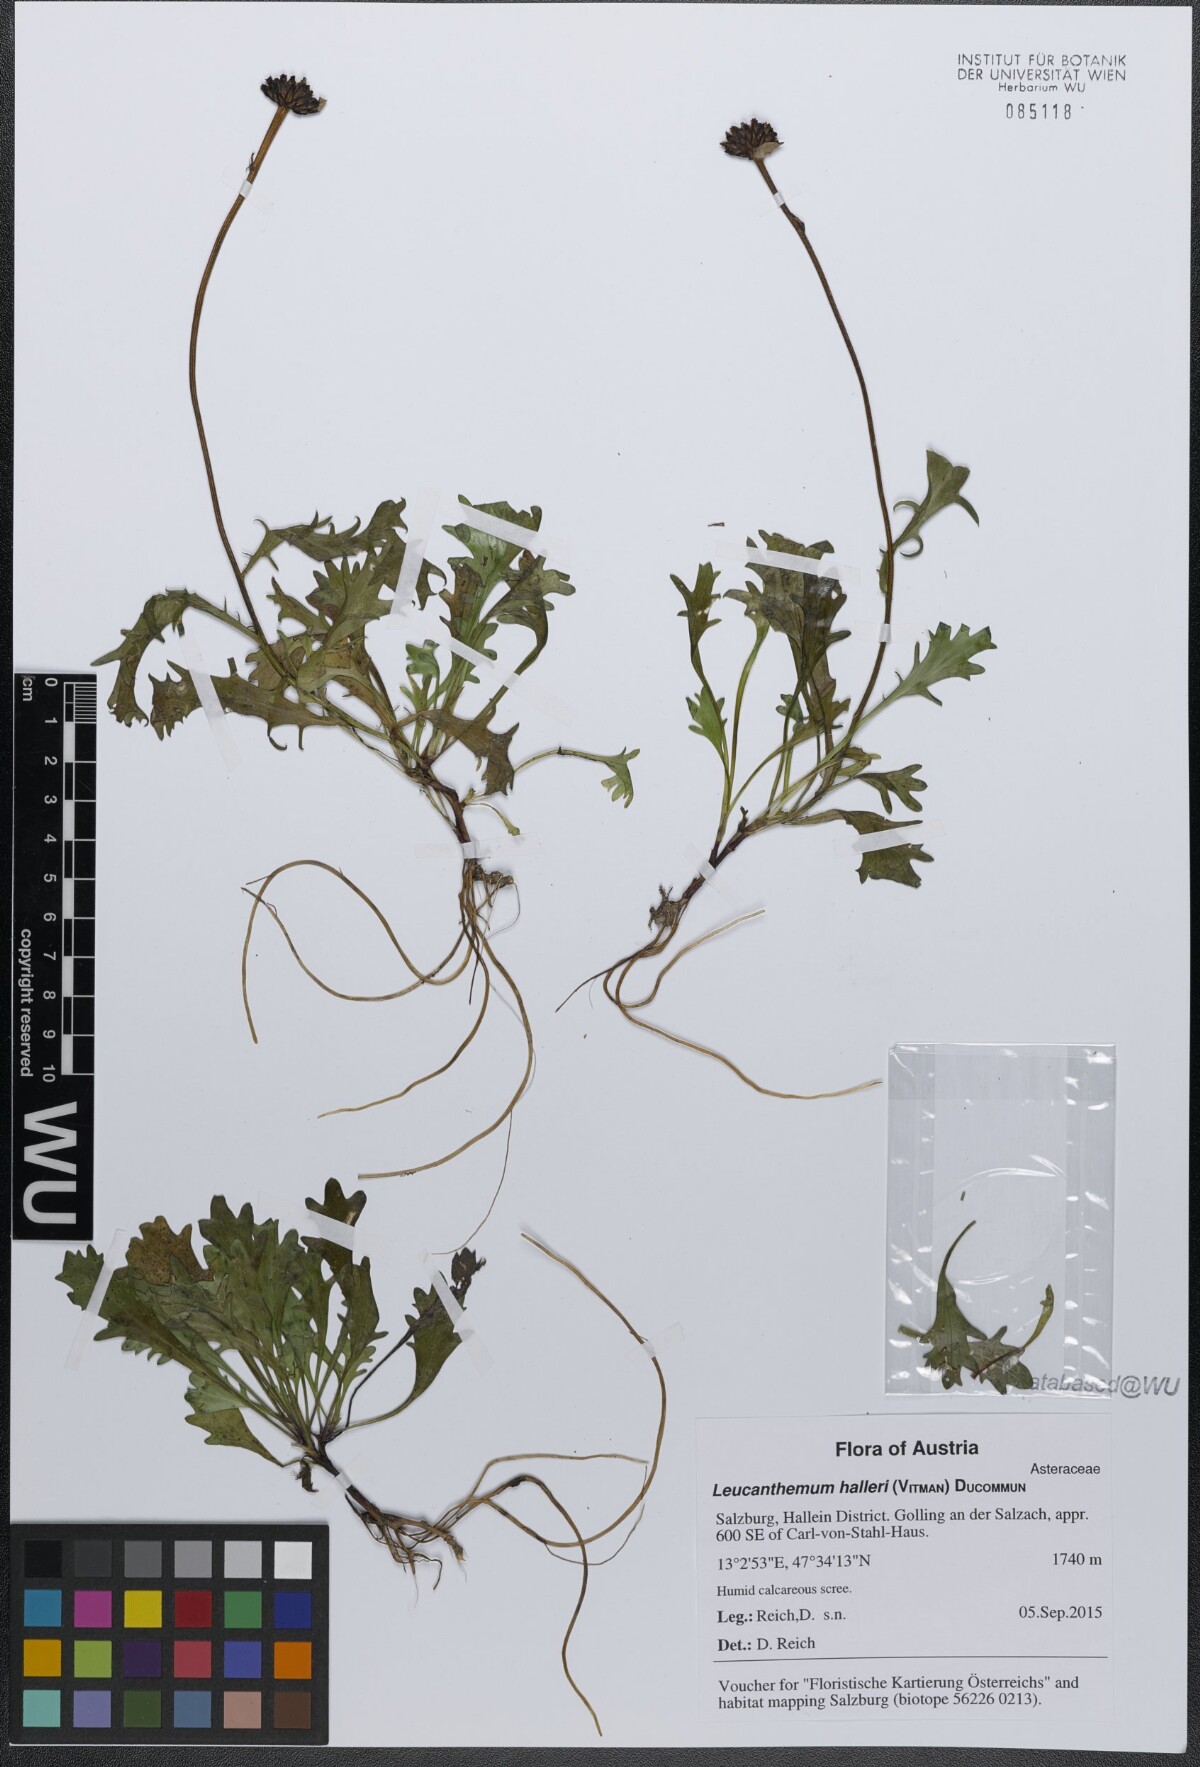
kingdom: Plantae
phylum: Tracheophyta
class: Magnoliopsida
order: Asterales
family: Asteraceae
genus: Leucanthemum
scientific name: Leucanthemum halleri
